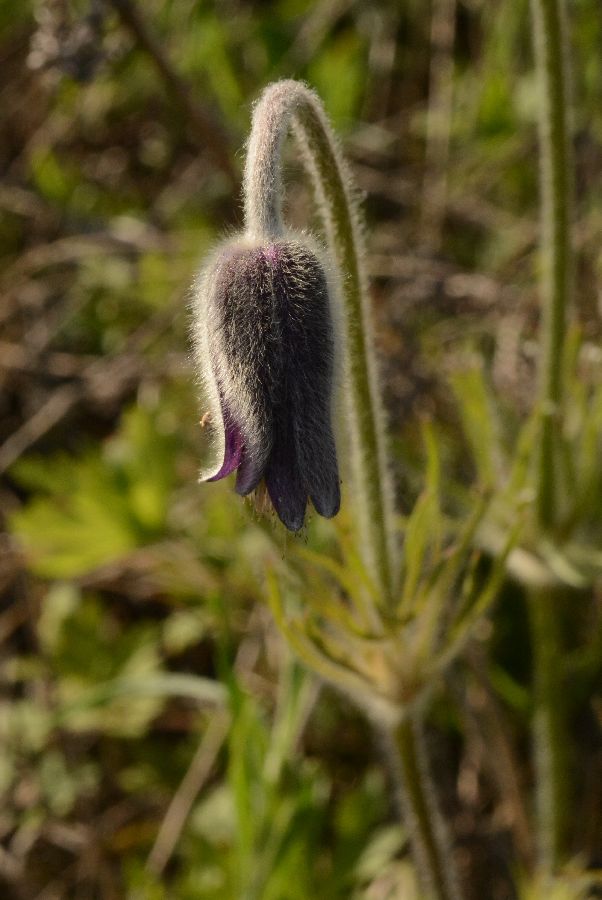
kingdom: Plantae
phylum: Tracheophyta
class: Magnoliopsida
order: Ranunculales
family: Ranunculaceae
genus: Pulsatilla
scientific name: Pulsatilla pratensis
